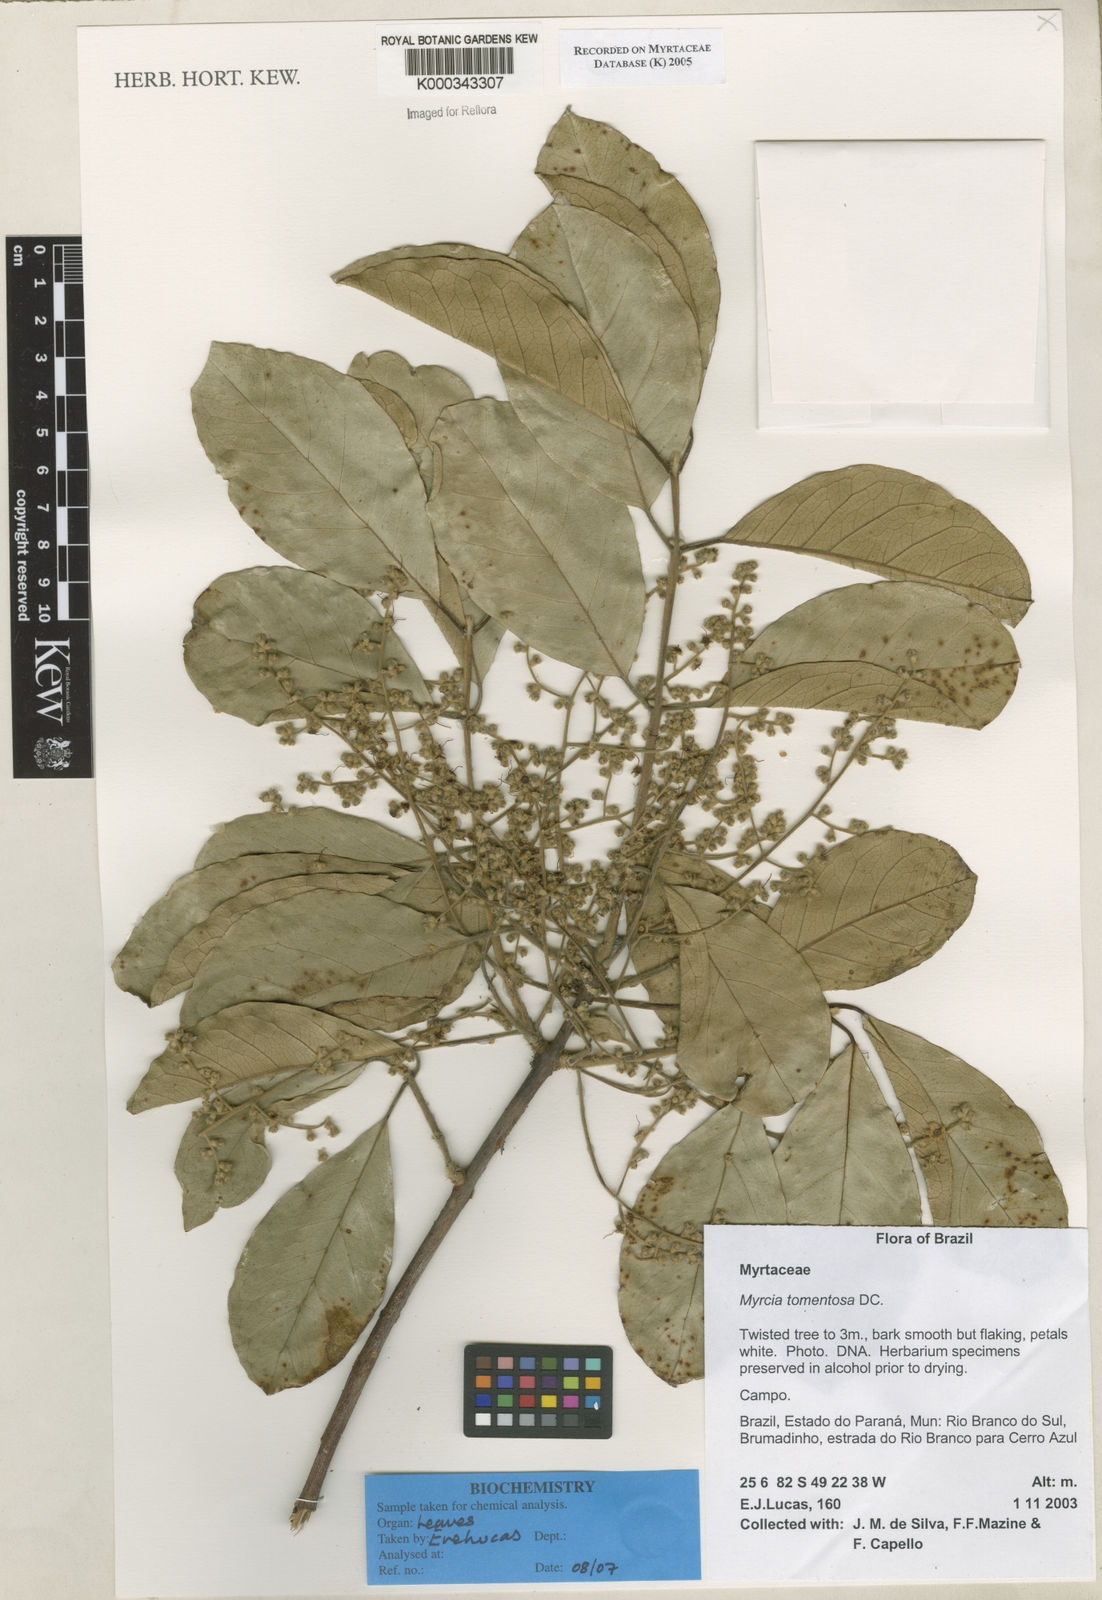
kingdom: Plantae
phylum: Tracheophyta
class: Magnoliopsida
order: Myrtales
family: Myrtaceae
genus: Myrcia
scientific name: Myrcia tomentosa
